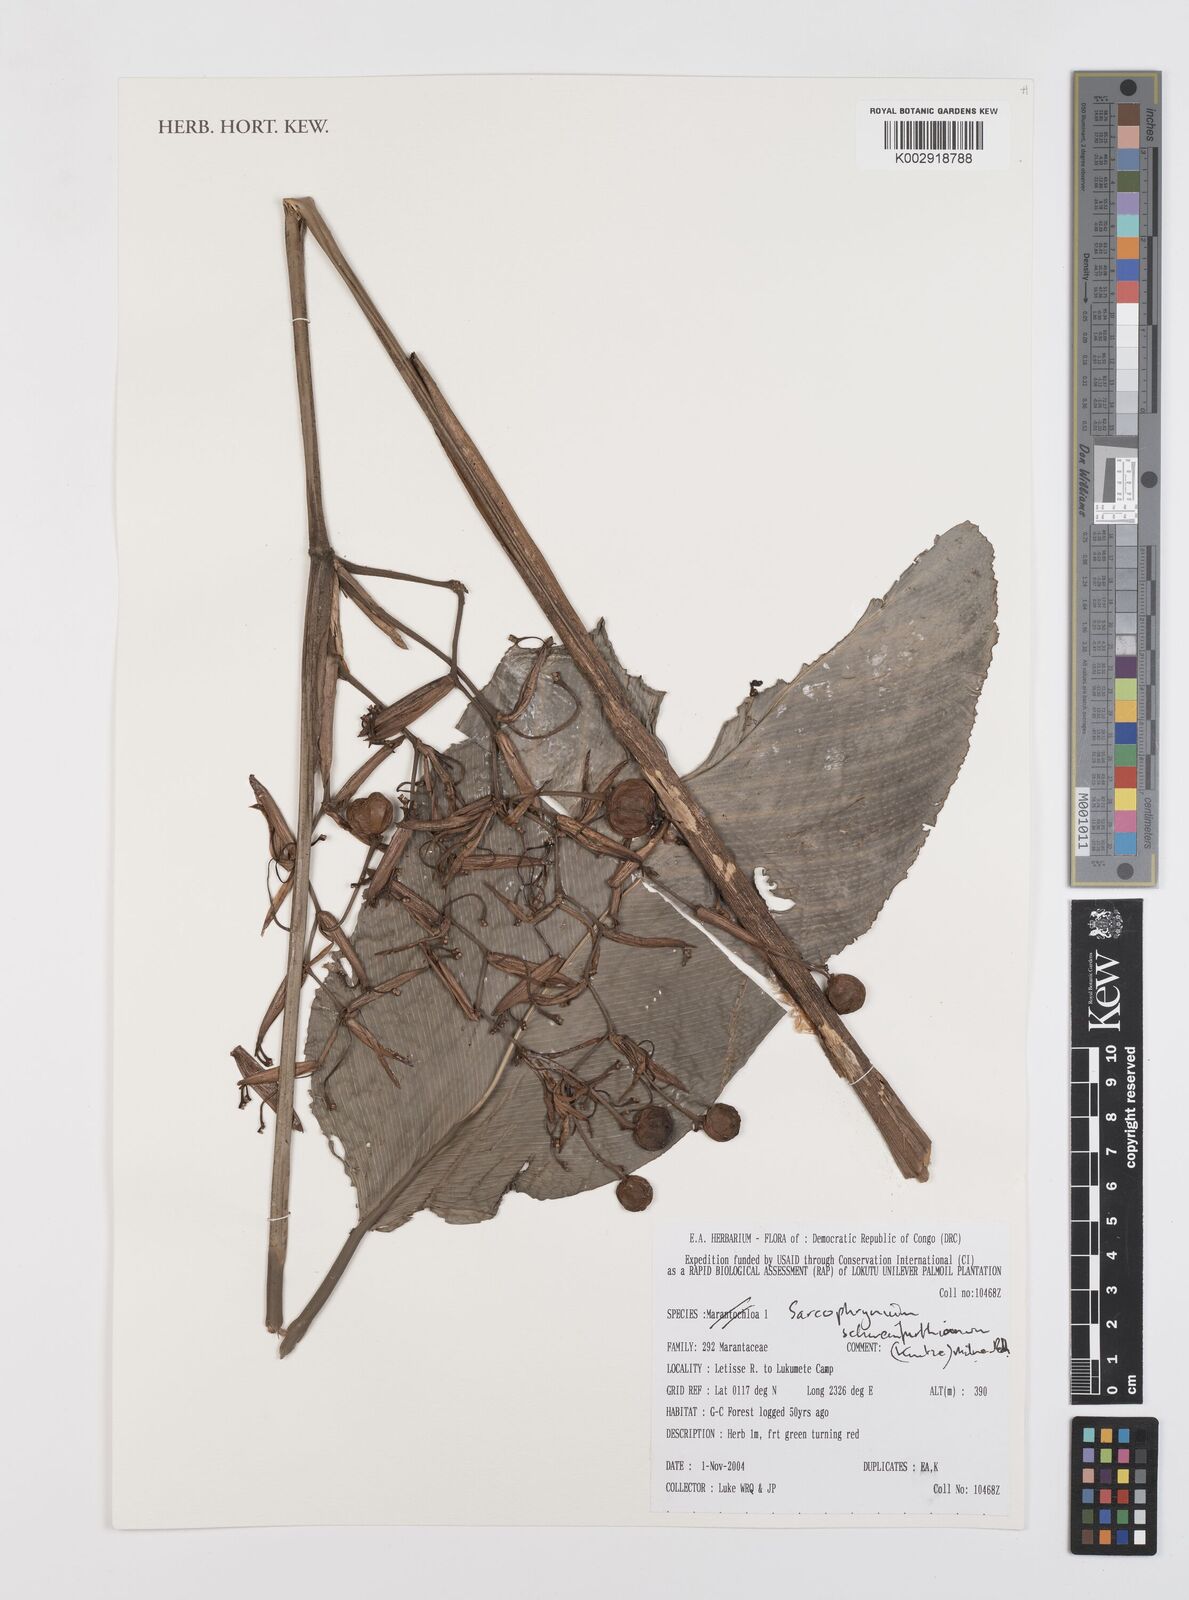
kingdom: Plantae
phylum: Tracheophyta
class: Liliopsida
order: Zingiberales
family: Marantaceae
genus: Sarcophrynium
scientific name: Sarcophrynium schweinfurthianum
